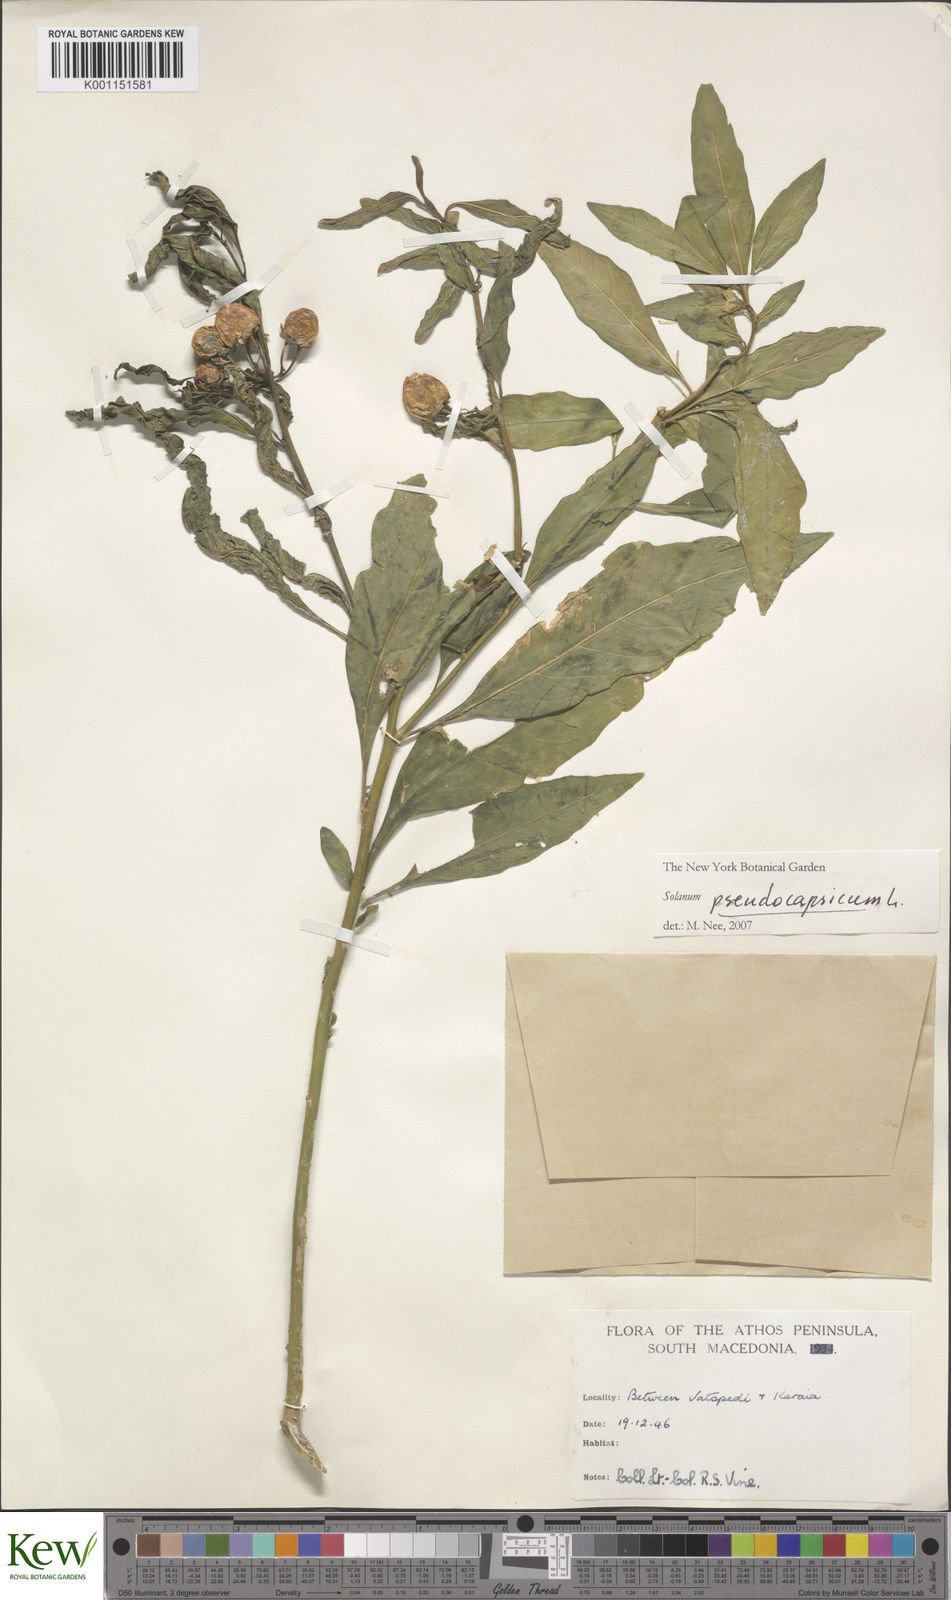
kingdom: Plantae
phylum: Tracheophyta
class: Magnoliopsida
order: Solanales
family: Solanaceae
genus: Solanum
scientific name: Solanum pseudocapsicum
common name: Jerusalem cherry
